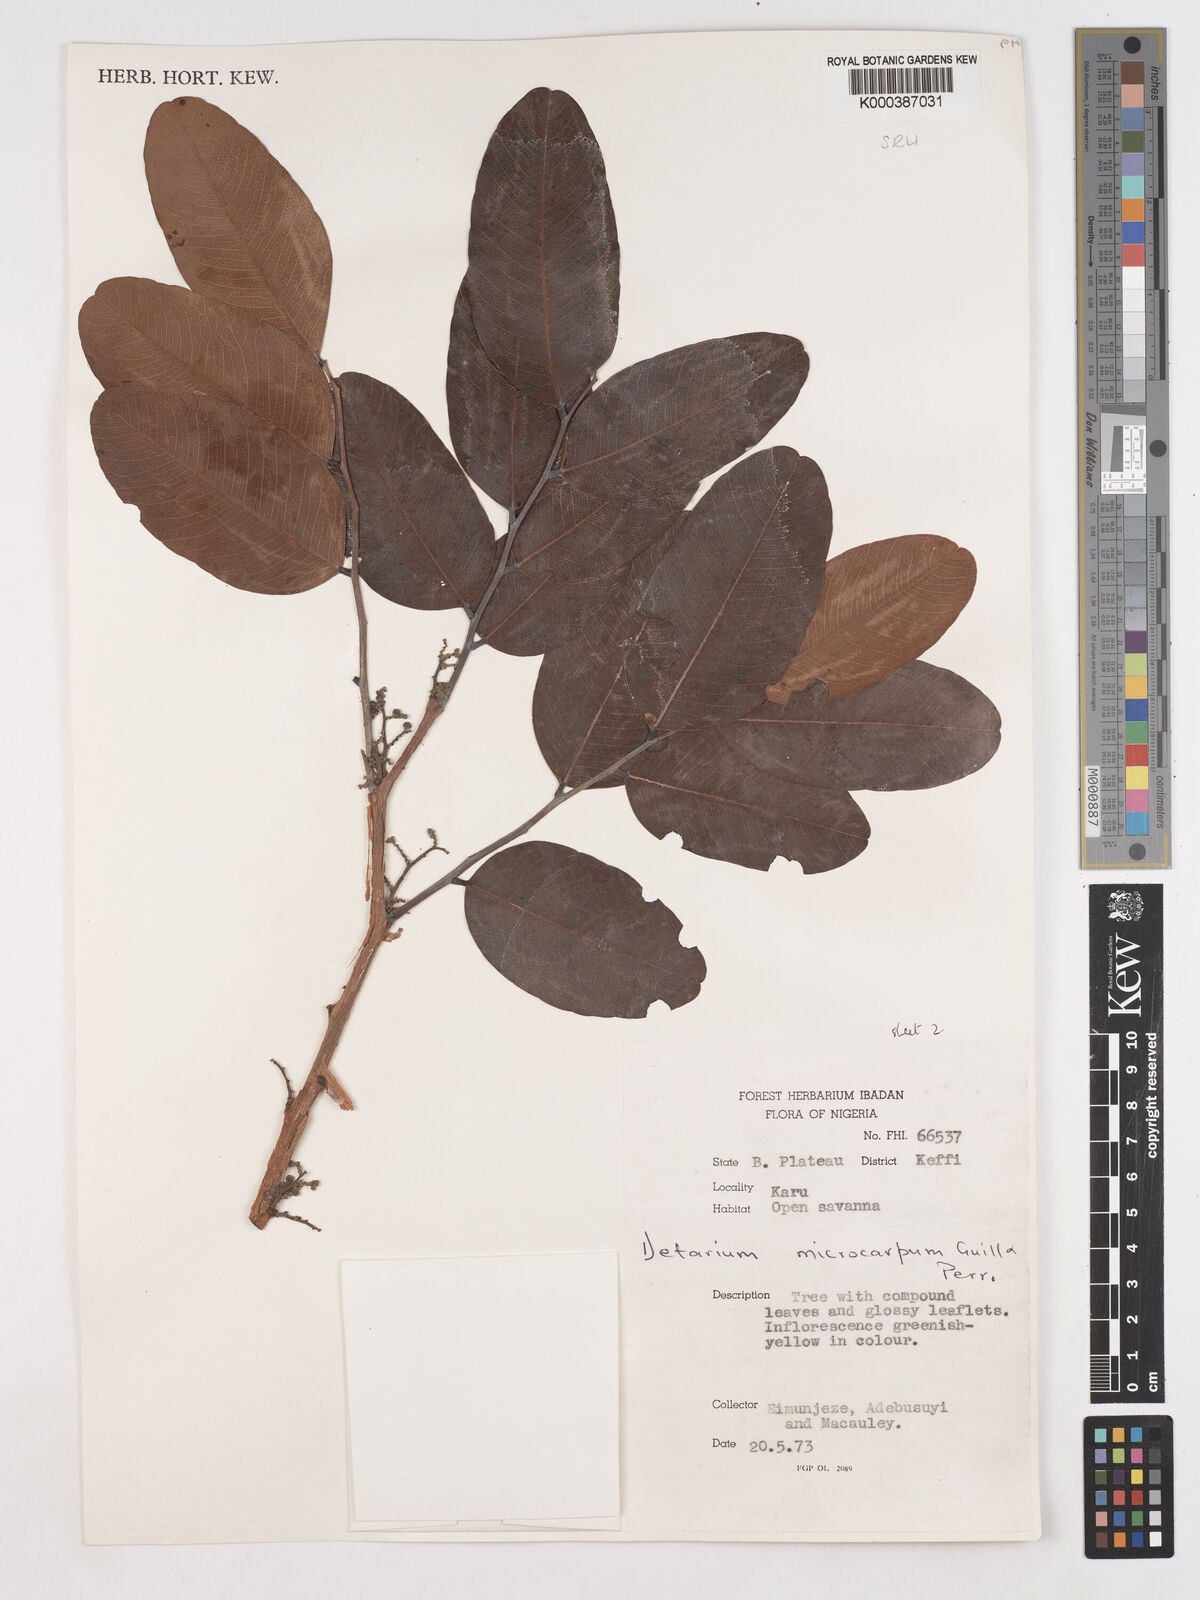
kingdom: Plantae
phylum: Tracheophyta
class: Magnoliopsida
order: Fabales
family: Fabaceae
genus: Detarium
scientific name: Detarium microcarpum
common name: Sweet dattock
